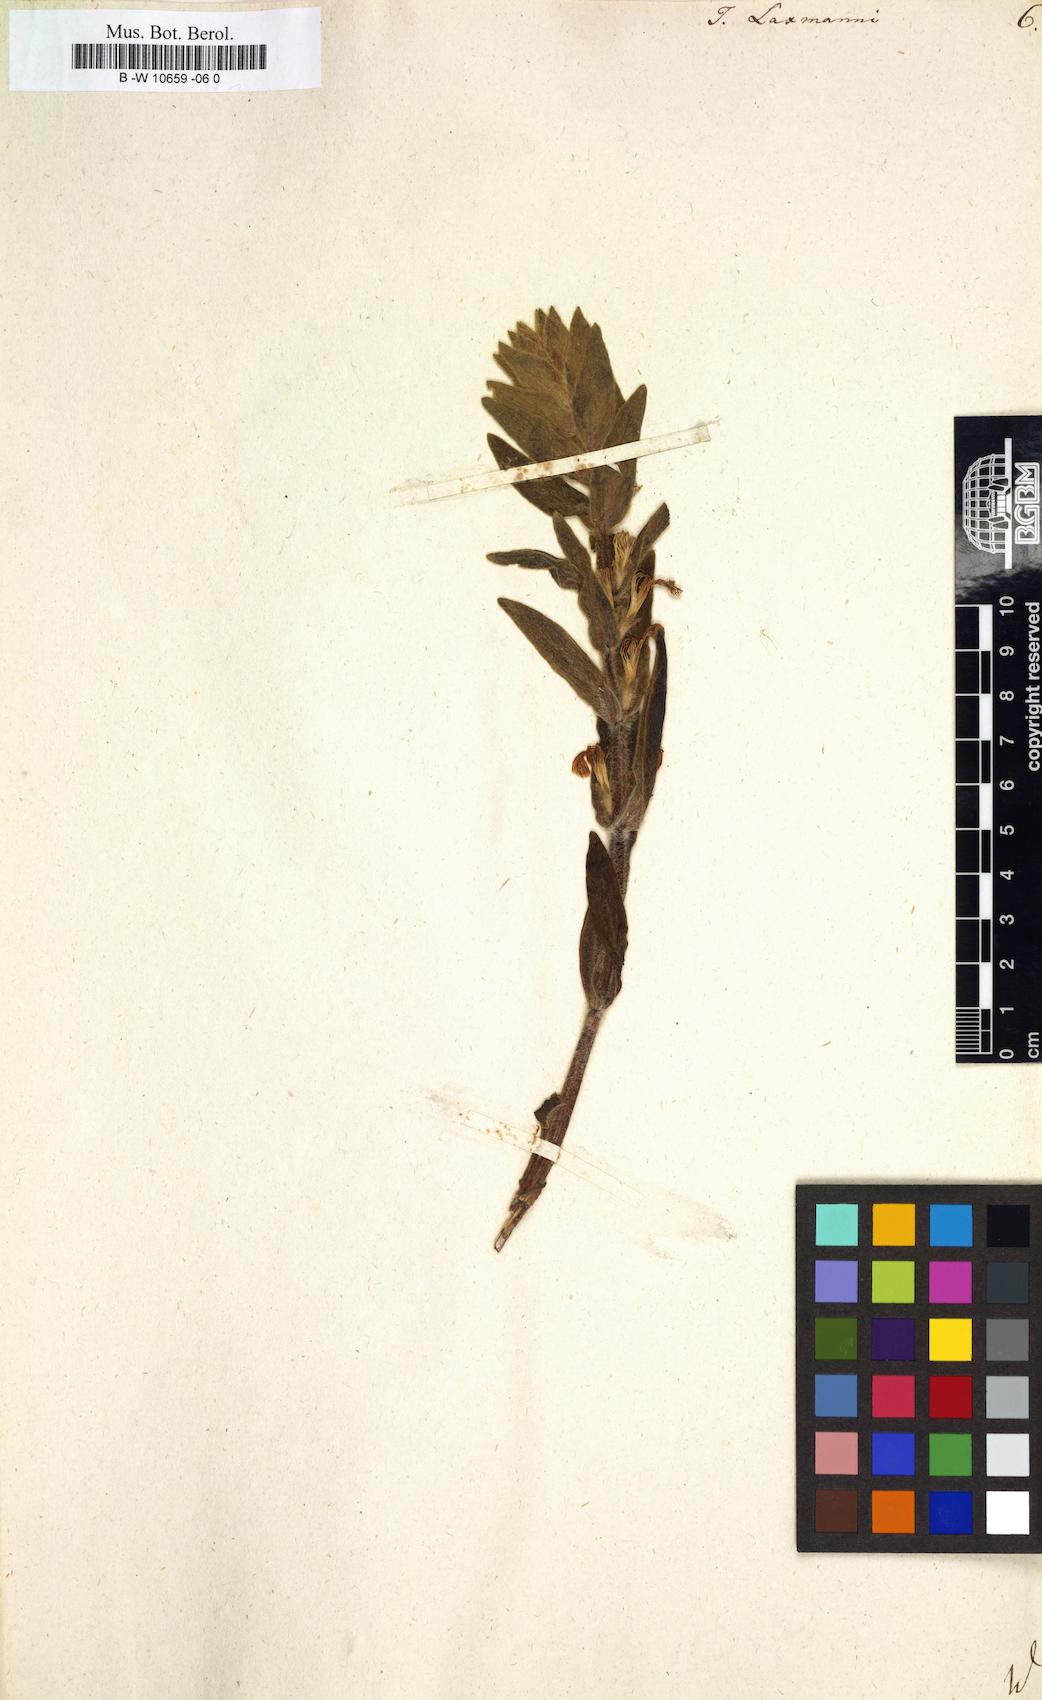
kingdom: Plantae
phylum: Tracheophyta
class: Magnoliopsida
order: Lamiales
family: Lamiaceae
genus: Ajuga
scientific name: Ajuga laxmannii
